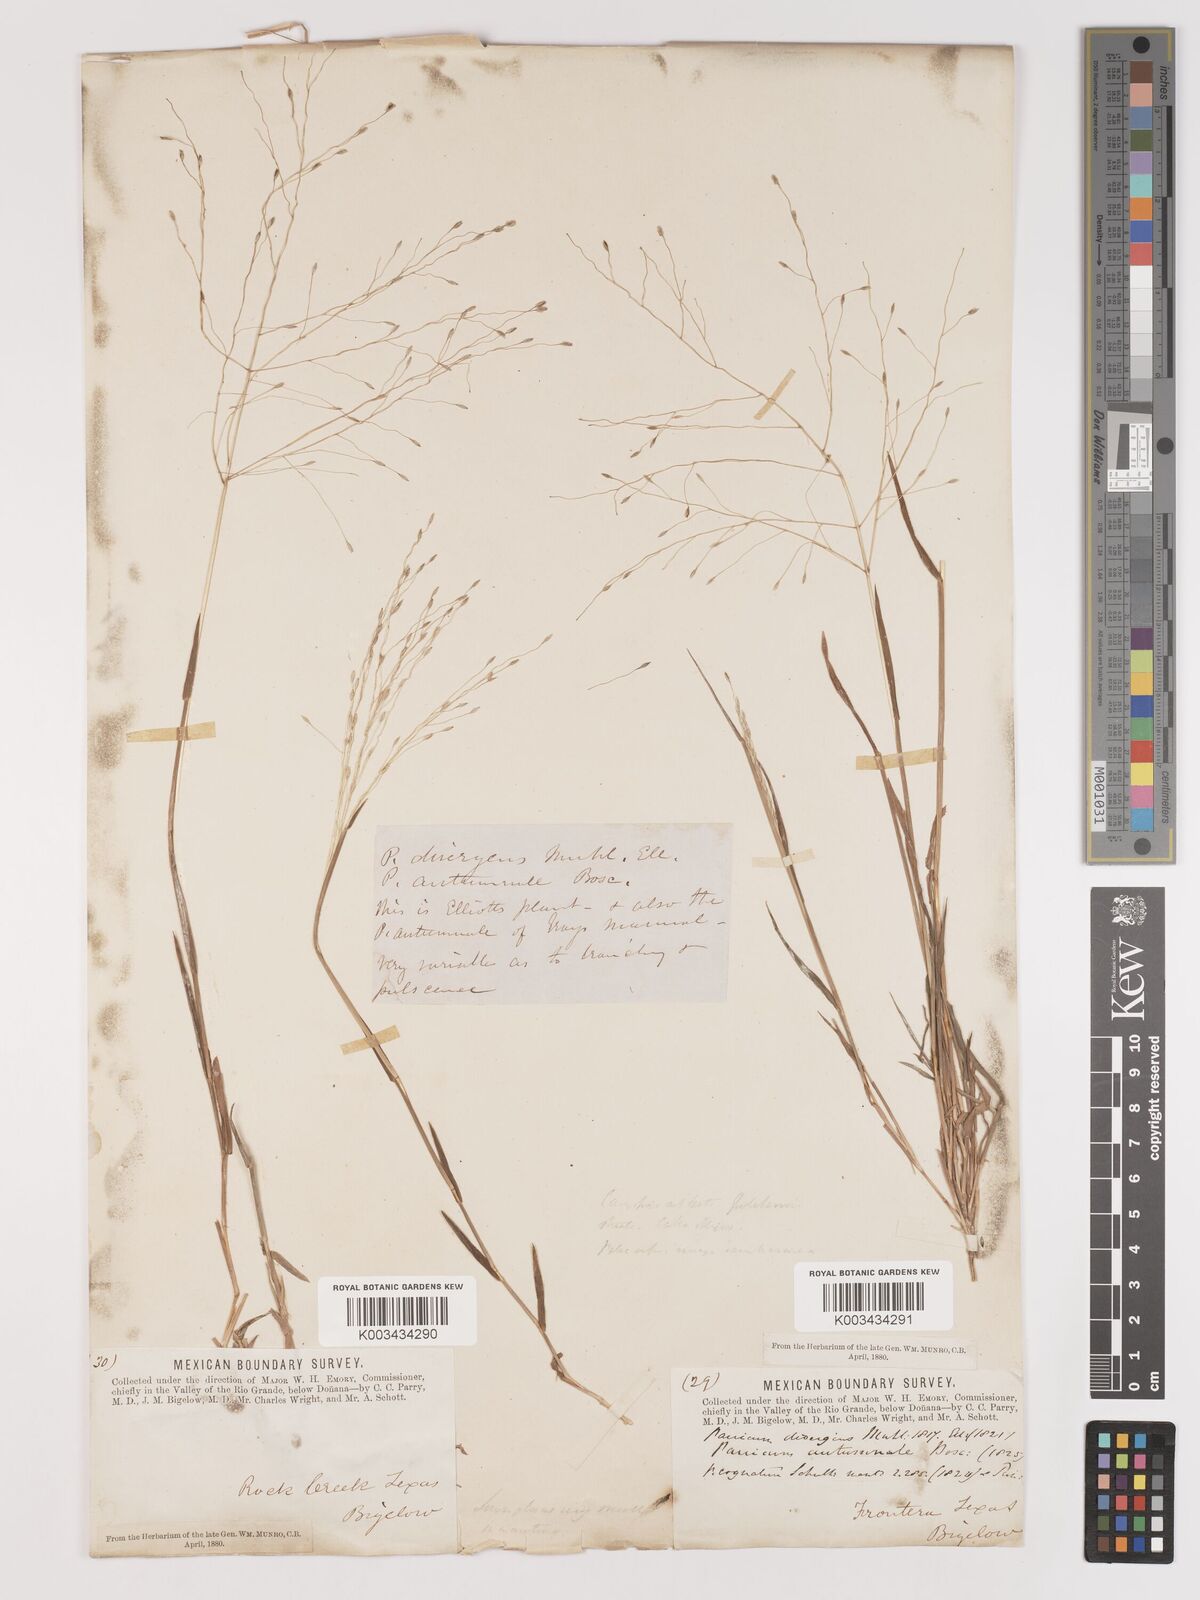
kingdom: Plantae
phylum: Tracheophyta
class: Liliopsida
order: Poales
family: Poaceae
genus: Digitaria
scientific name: Digitaria cognata
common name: Fall witchgrass
